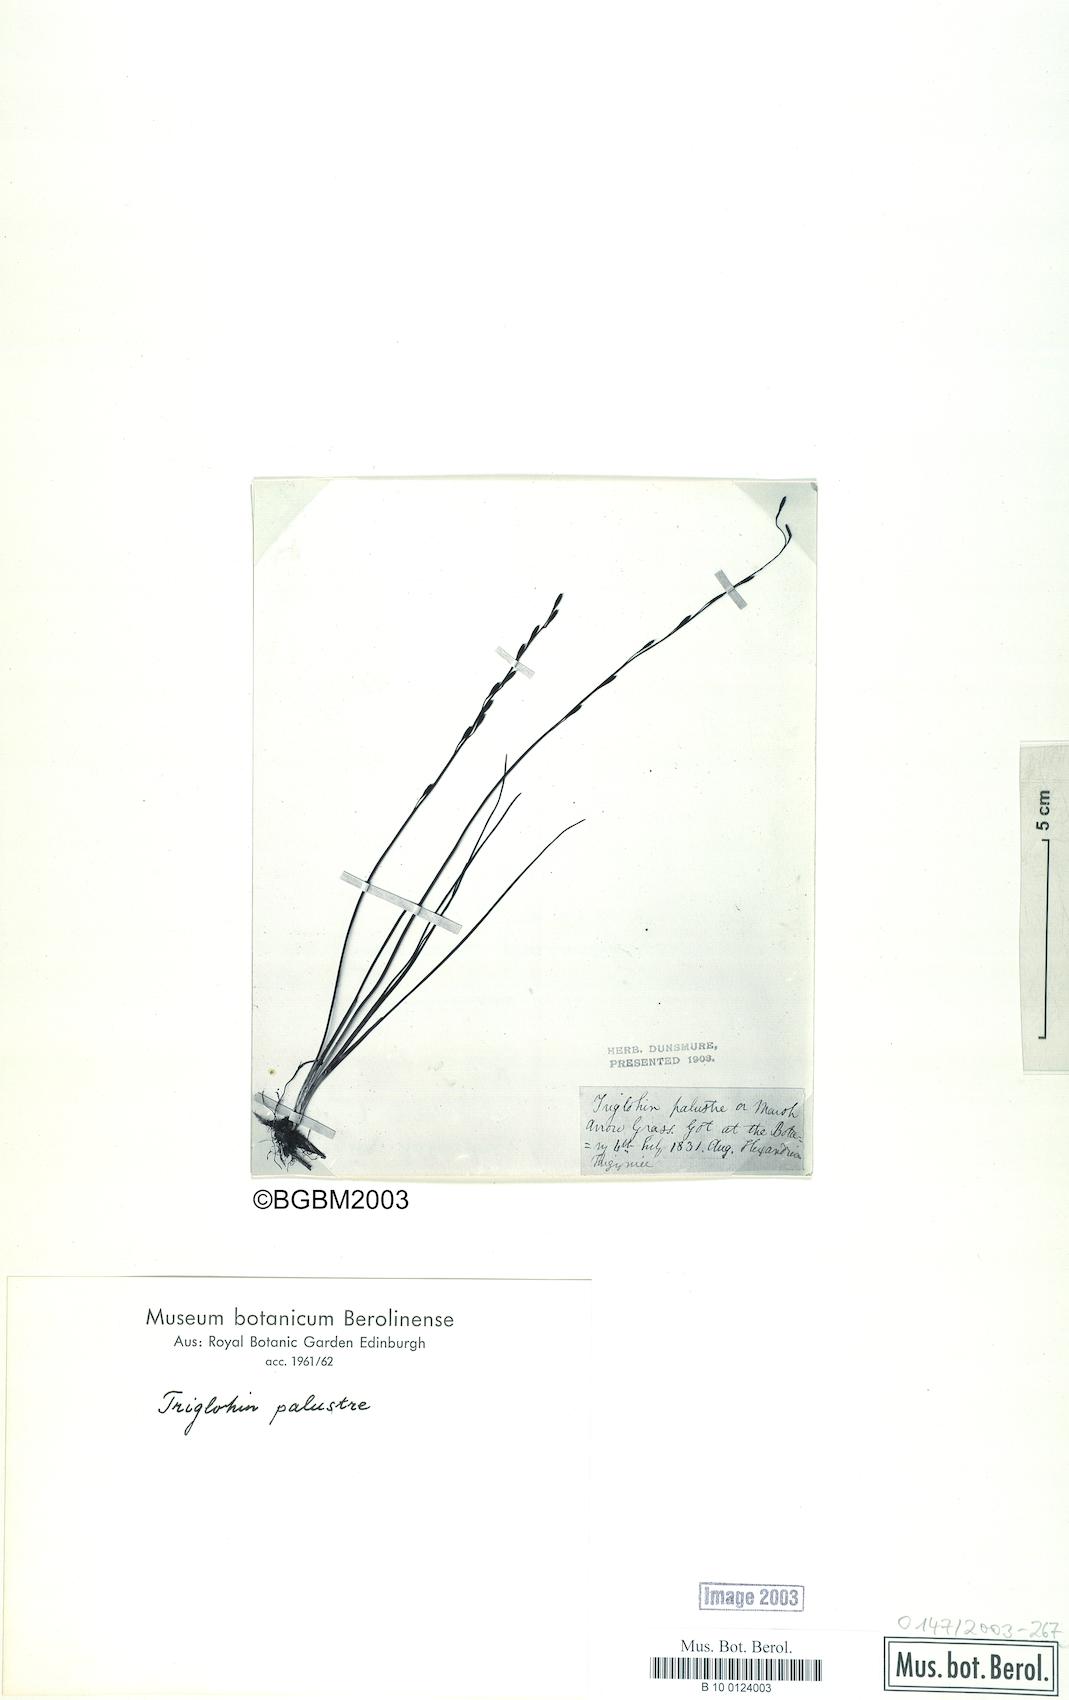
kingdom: Plantae
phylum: Tracheophyta
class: Liliopsida
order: Alismatales
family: Juncaginaceae
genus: Triglochin
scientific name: Triglochin palustris
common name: Marsh arrowgrass
